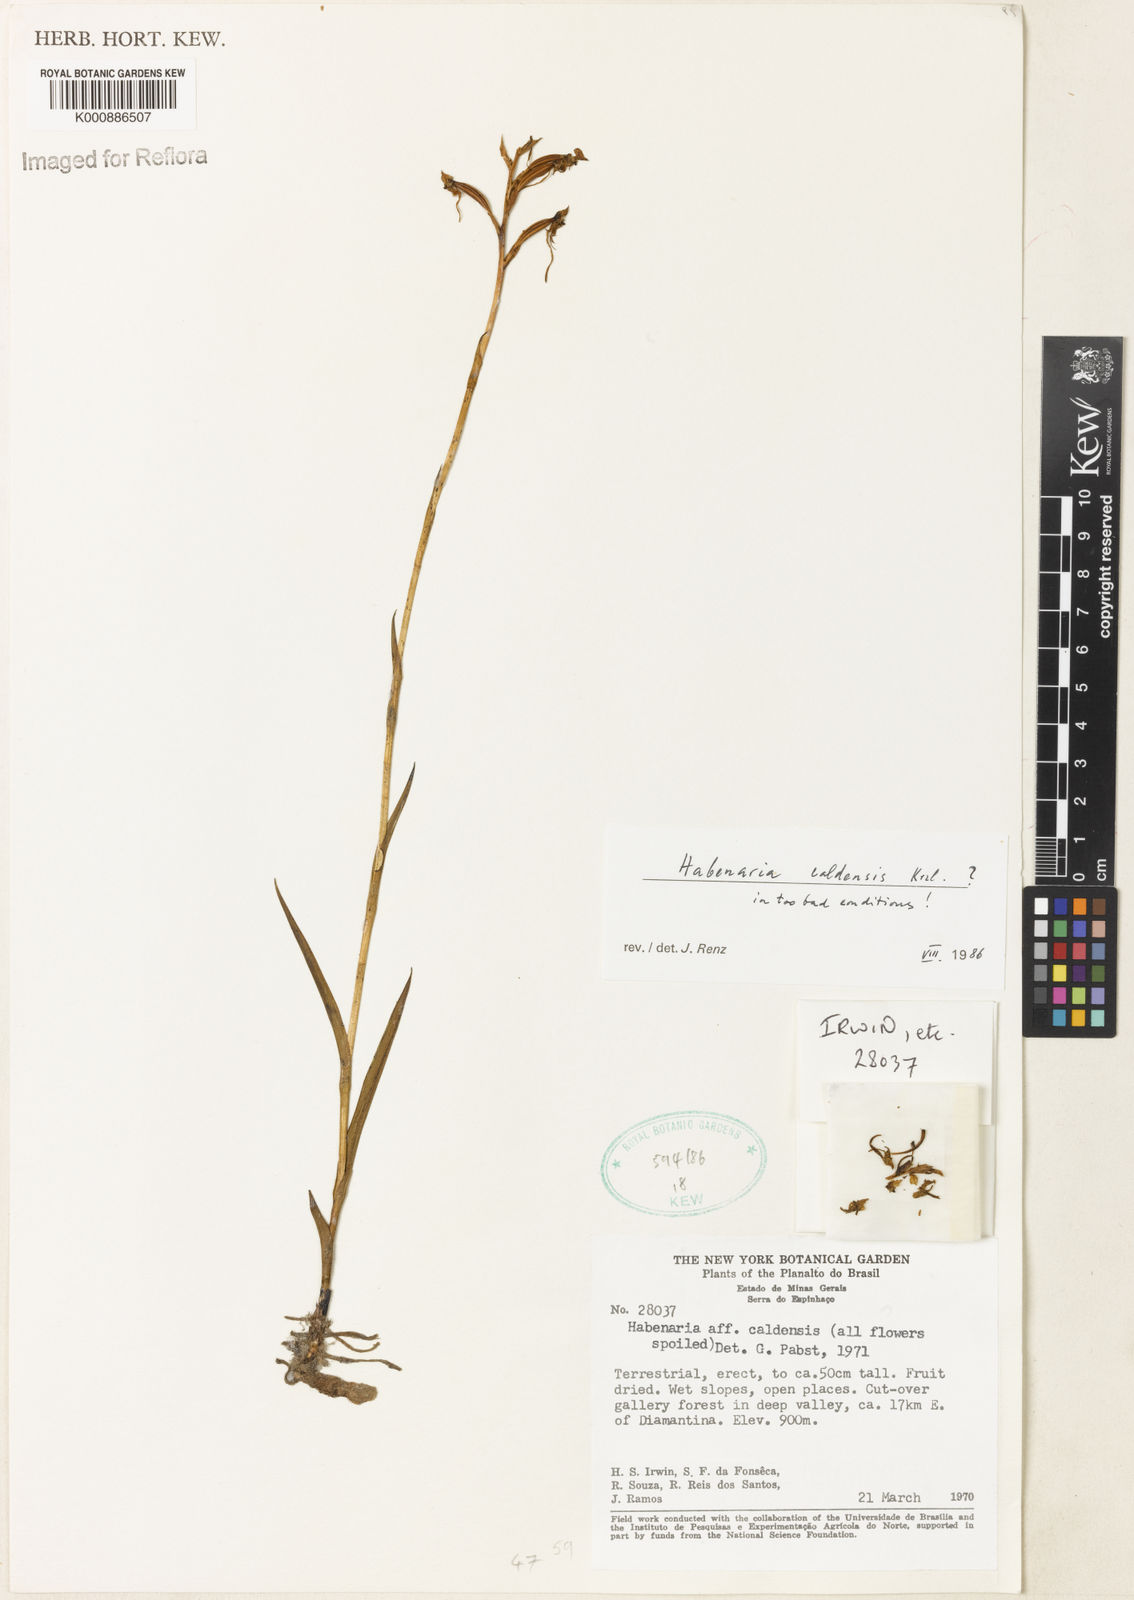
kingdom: Plantae
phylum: Tracheophyta
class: Liliopsida
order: Asparagales
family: Orchidaceae
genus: Habenaria
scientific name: Habenaria caldensis
